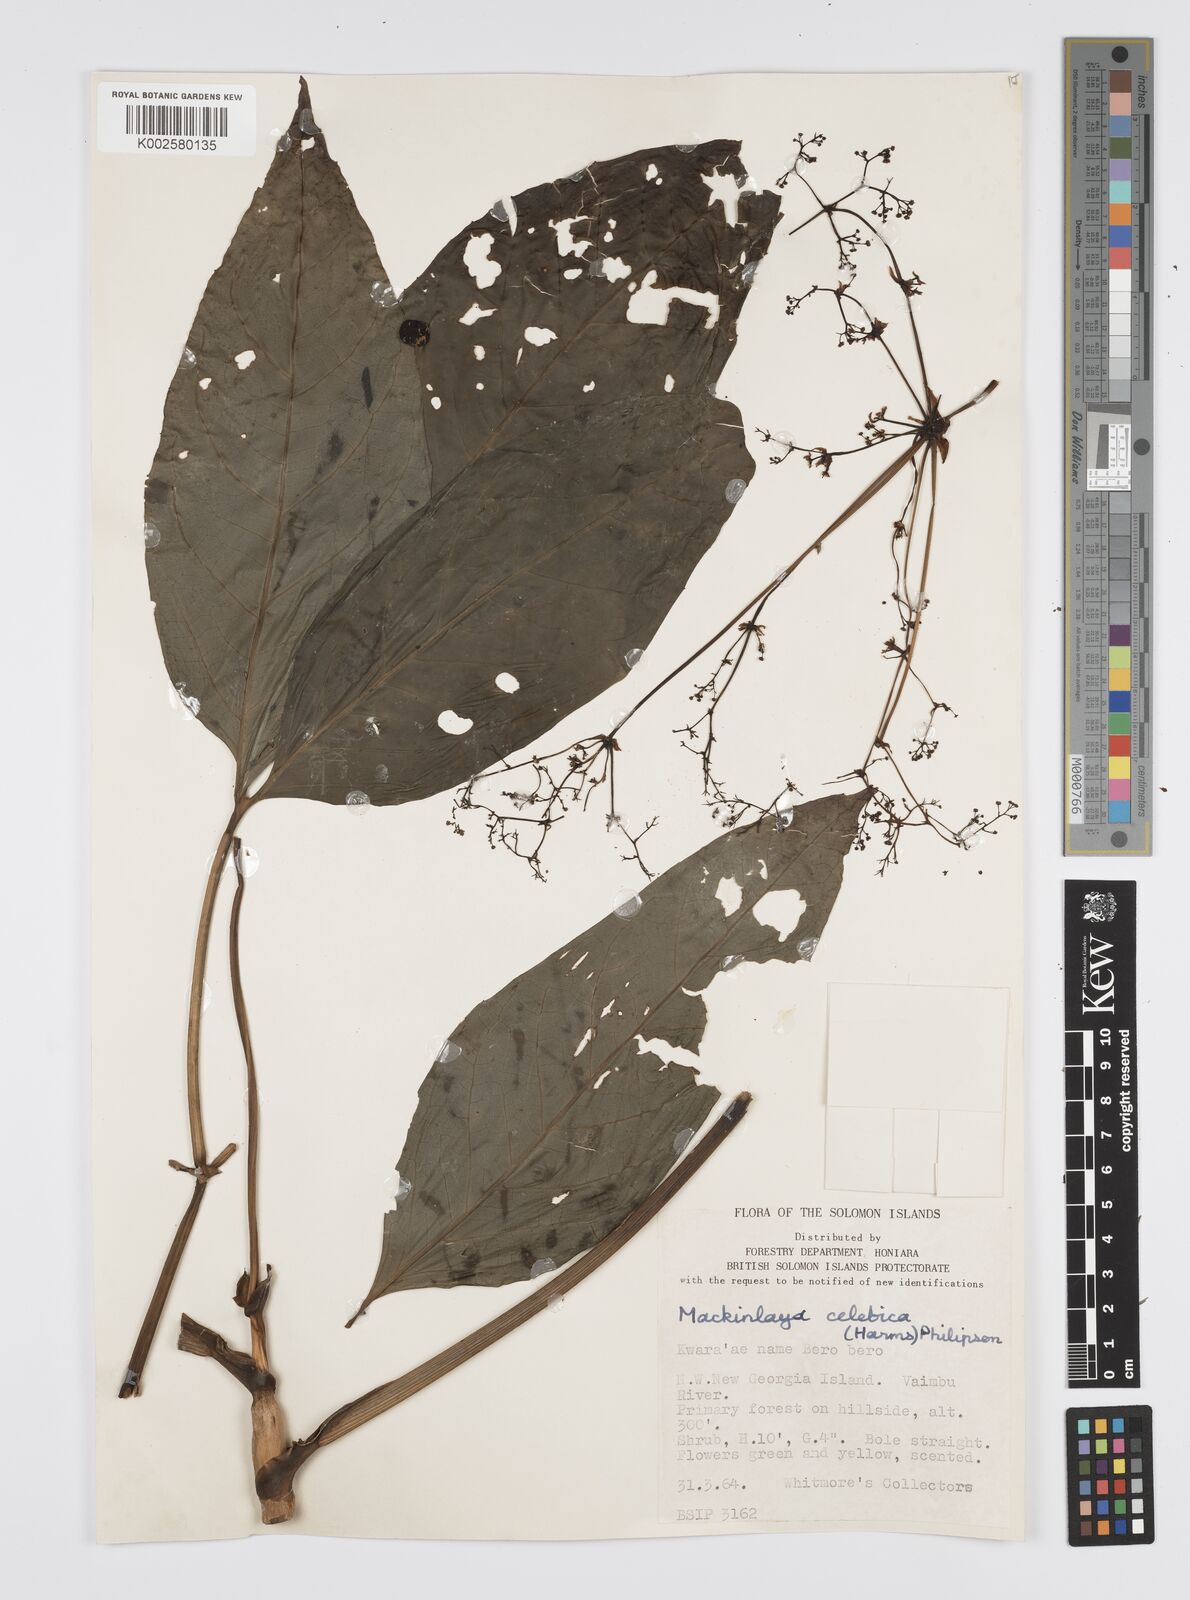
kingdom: Plantae
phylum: Tracheophyta
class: Magnoliopsida
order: Apiales
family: Apiaceae
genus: Mackinlaya
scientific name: Mackinlaya celebica
